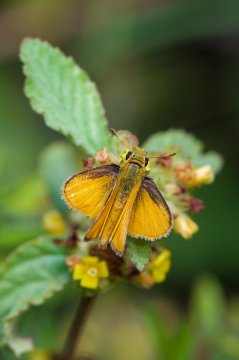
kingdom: Animalia
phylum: Arthropoda
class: Insecta
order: Lepidoptera
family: Hesperiidae
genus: Copaeodes
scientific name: Copaeodes minima
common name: Southern Skipperling
